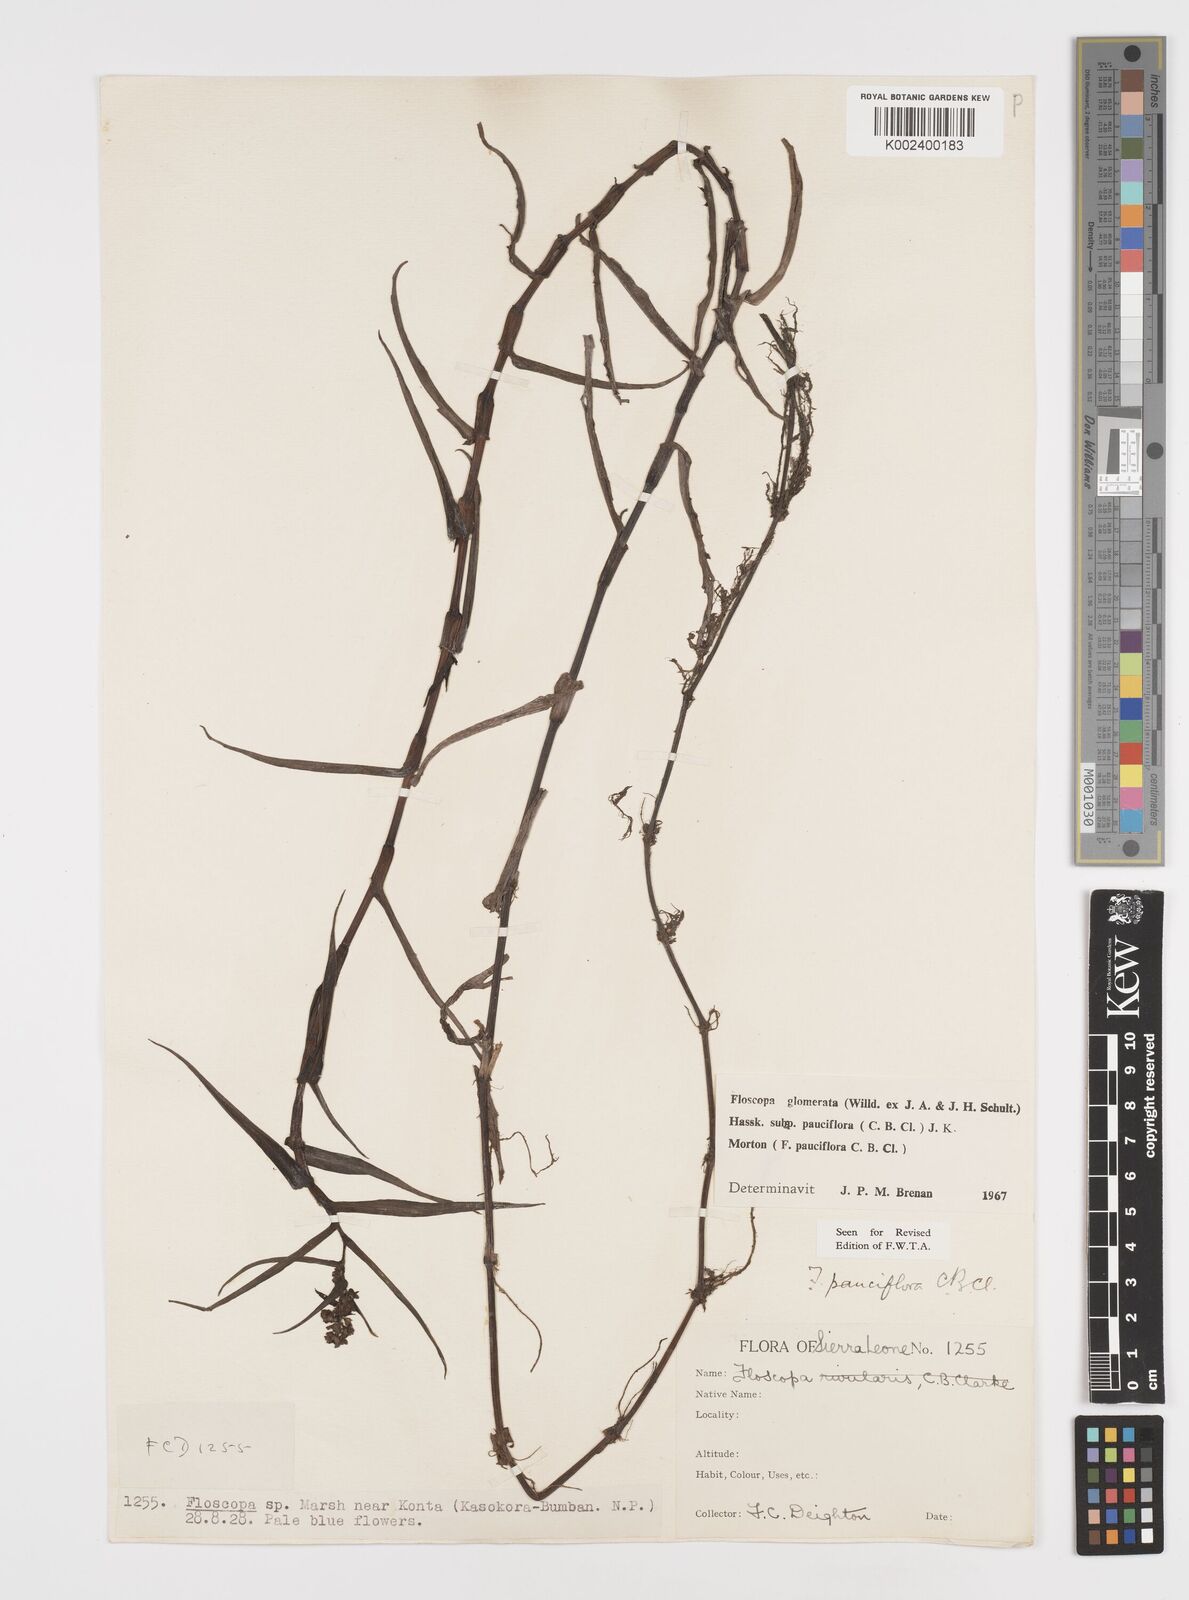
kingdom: Plantae
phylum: Tracheophyta
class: Liliopsida
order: Commelinales
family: Commelinaceae
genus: Floscopa
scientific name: Floscopa glomerata
